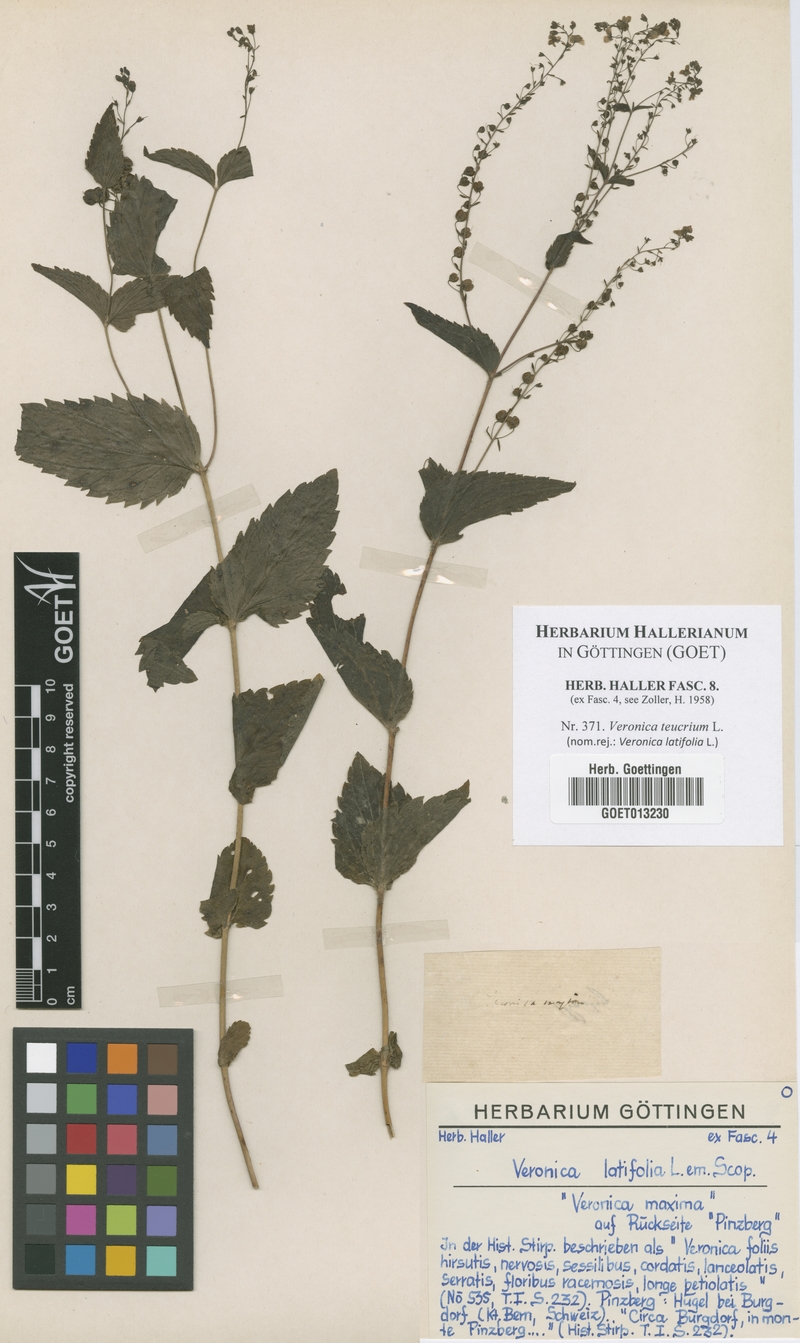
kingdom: Plantae
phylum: Tracheophyta
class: Magnoliopsida
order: Lamiales
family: Plantaginaceae
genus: Veronica
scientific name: Veronica teucrium
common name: Large speedwell
